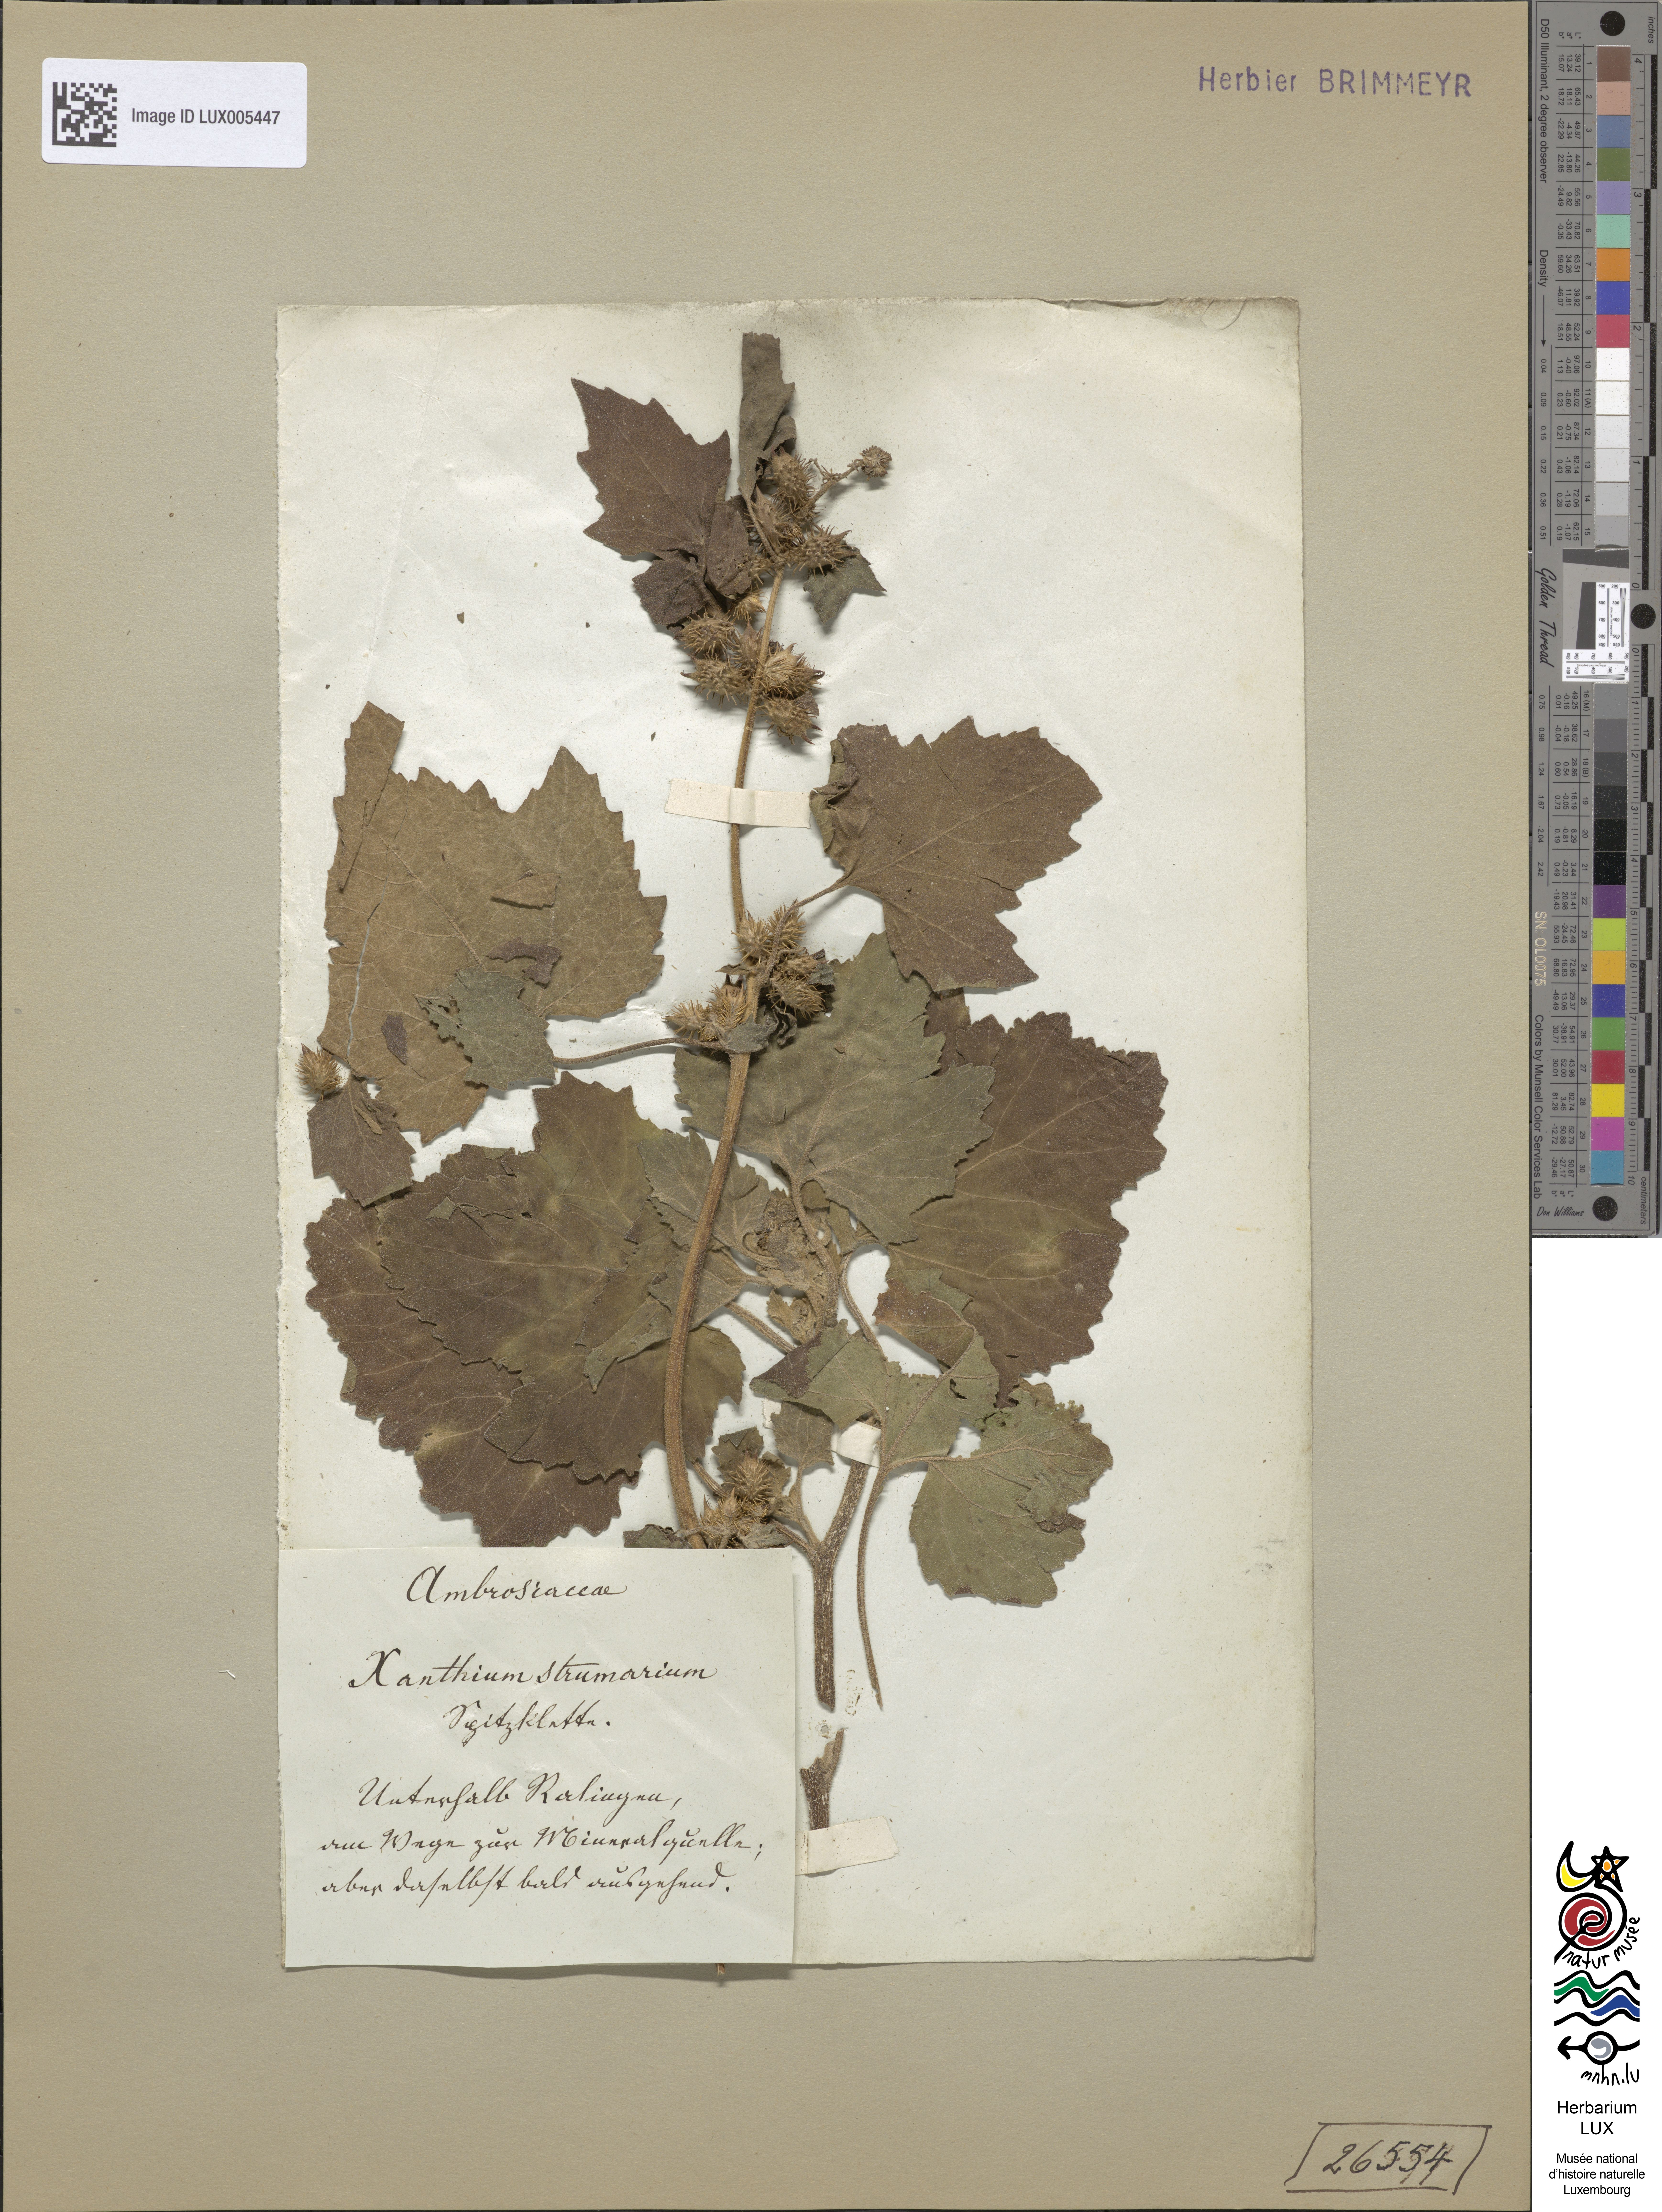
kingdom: Plantae
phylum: Tracheophyta
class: Magnoliopsida
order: Asterales
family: Asteraceae
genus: Xanthium
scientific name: Xanthium strumarium
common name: Rough cocklebur
